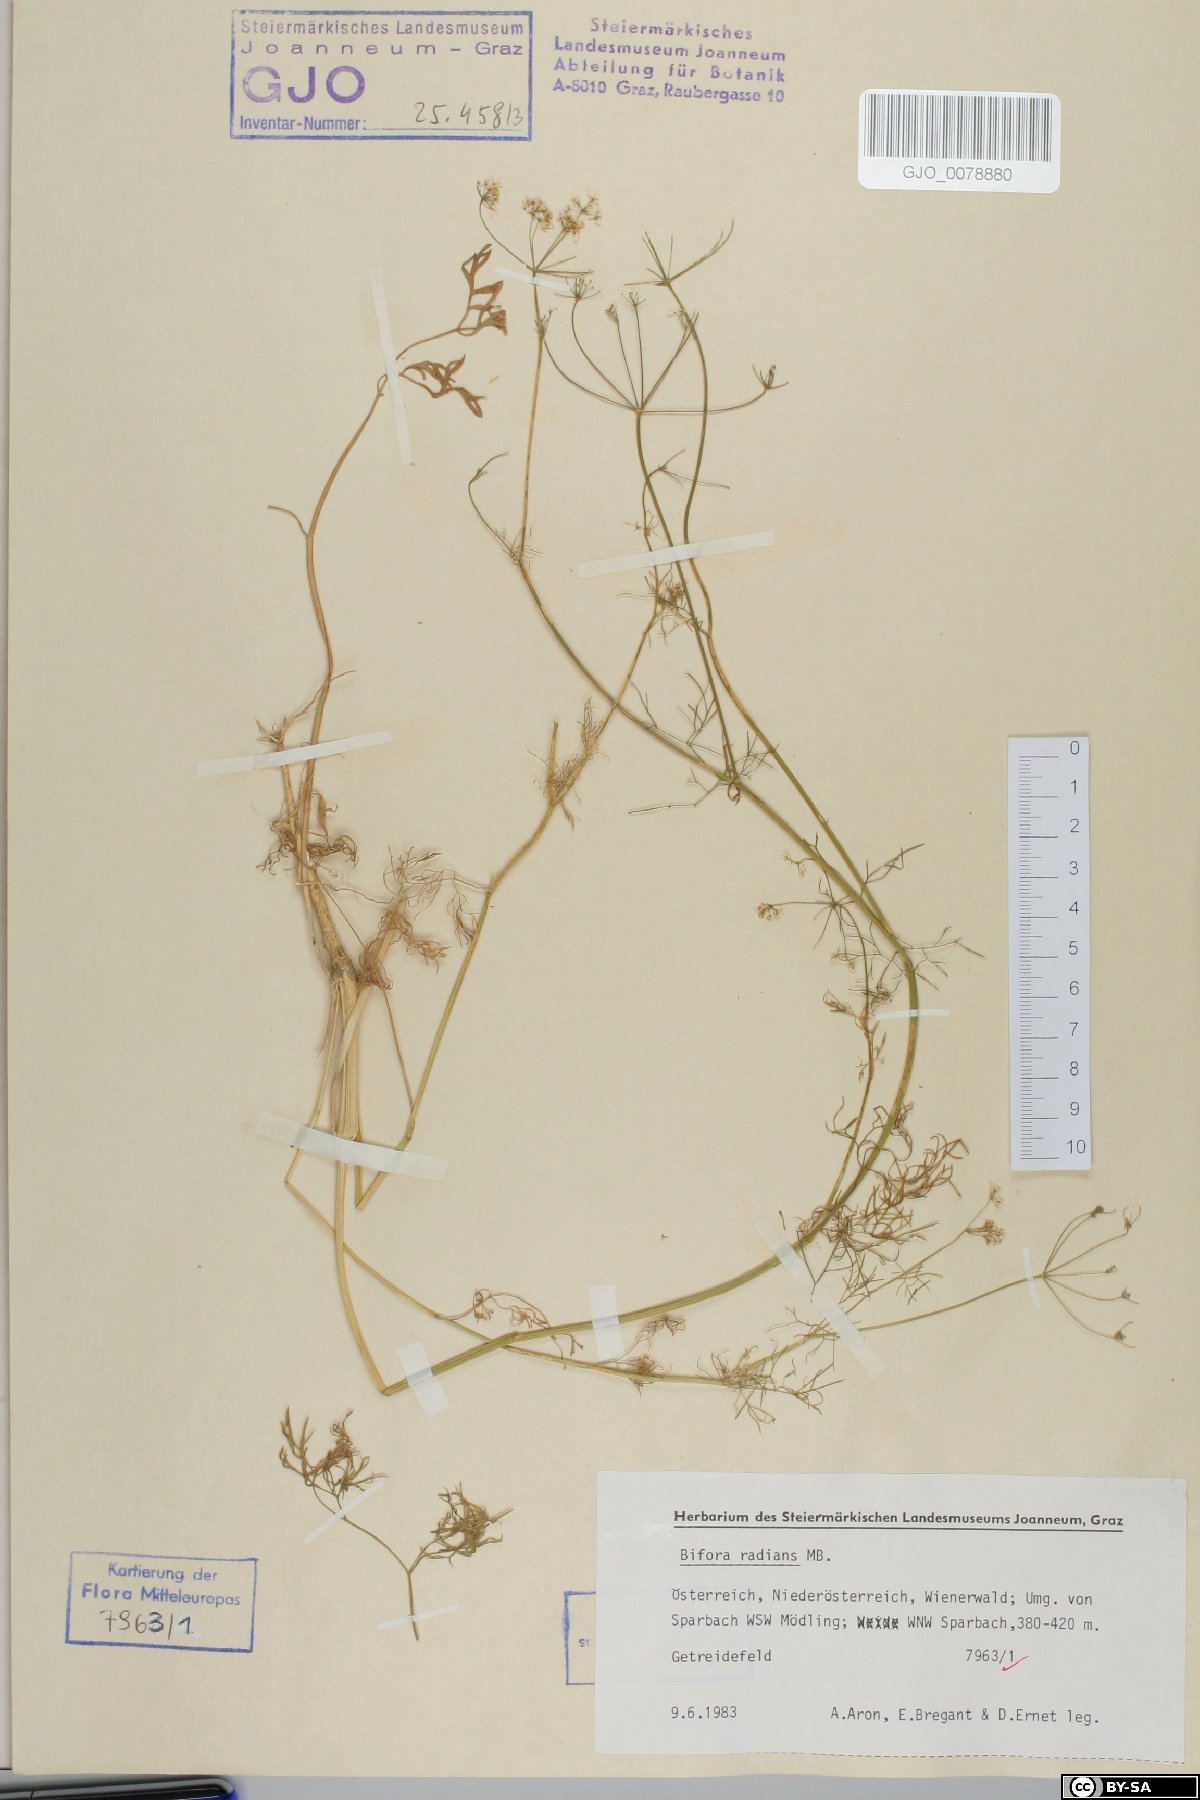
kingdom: Plantae
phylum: Tracheophyta
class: Magnoliopsida
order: Apiales
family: Apiaceae
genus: Bifora
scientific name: Bifora radians
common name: Wild bishop
